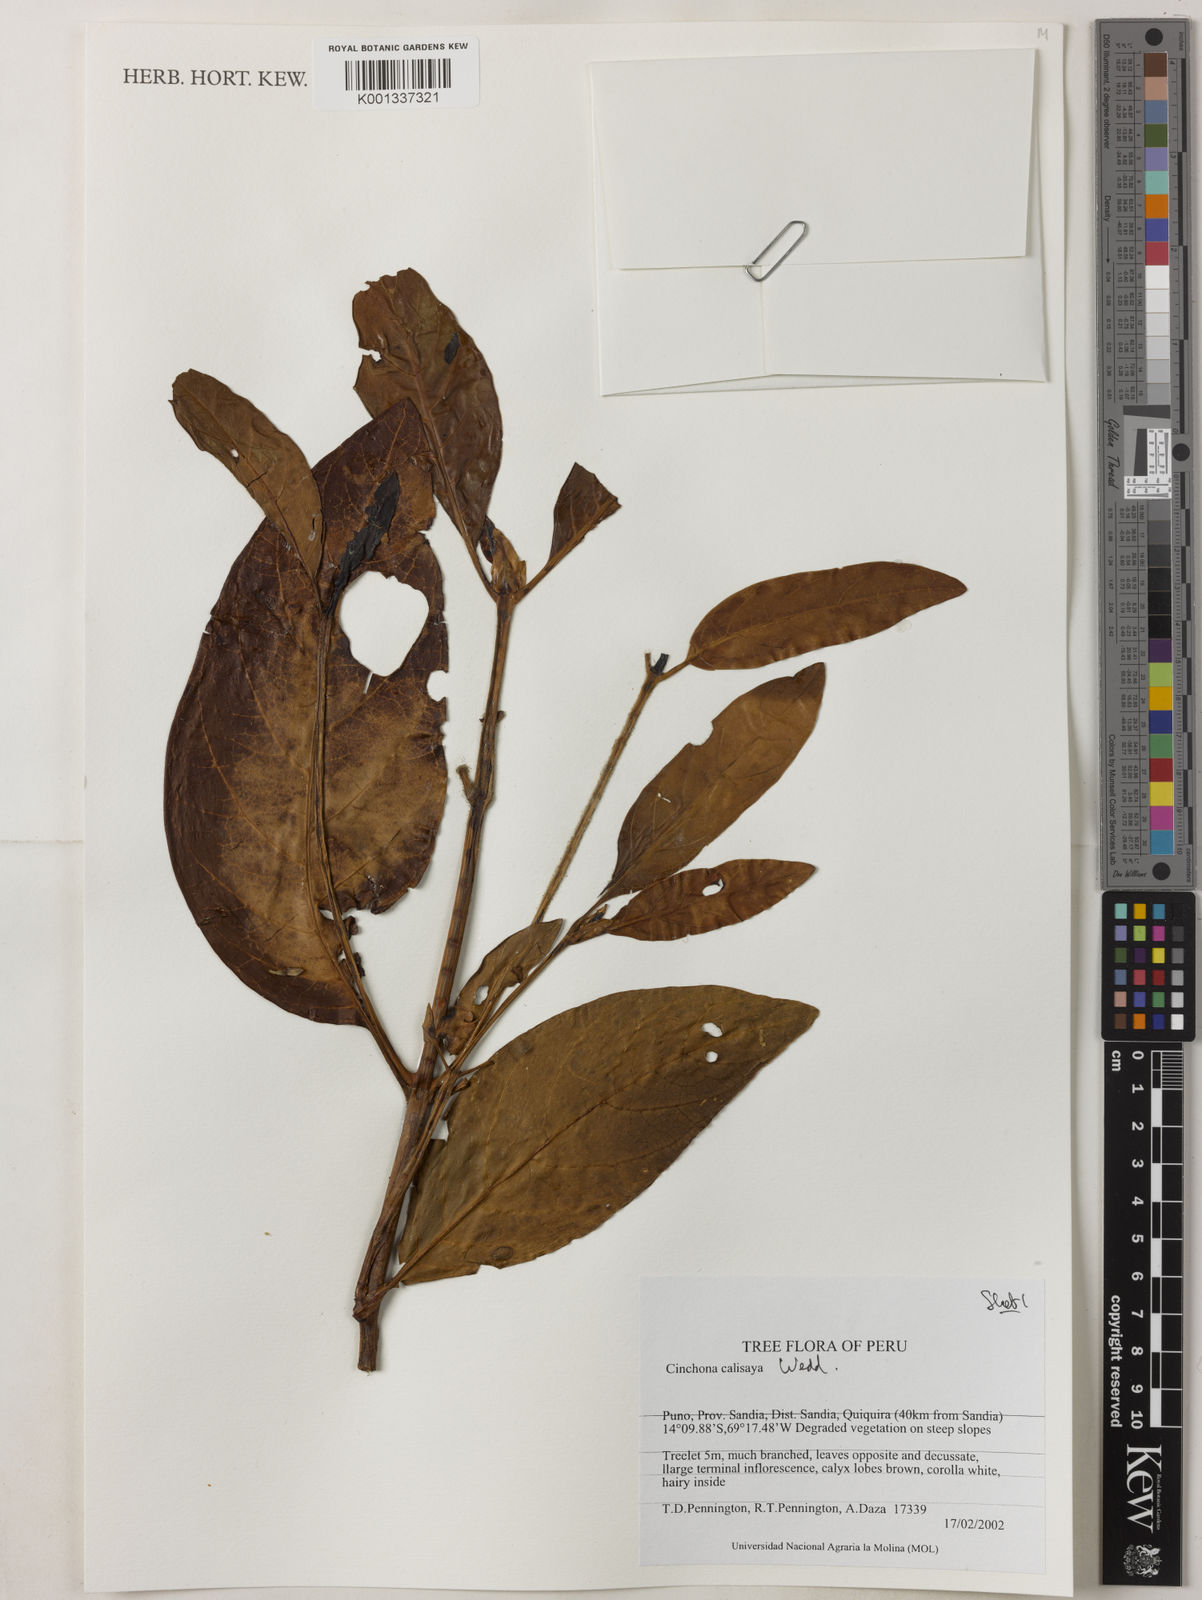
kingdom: Plantae
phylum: Tracheophyta
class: Magnoliopsida
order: Gentianales
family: Rubiaceae
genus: Cinchona
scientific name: Cinchona calisaya
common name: Ledgerbark
